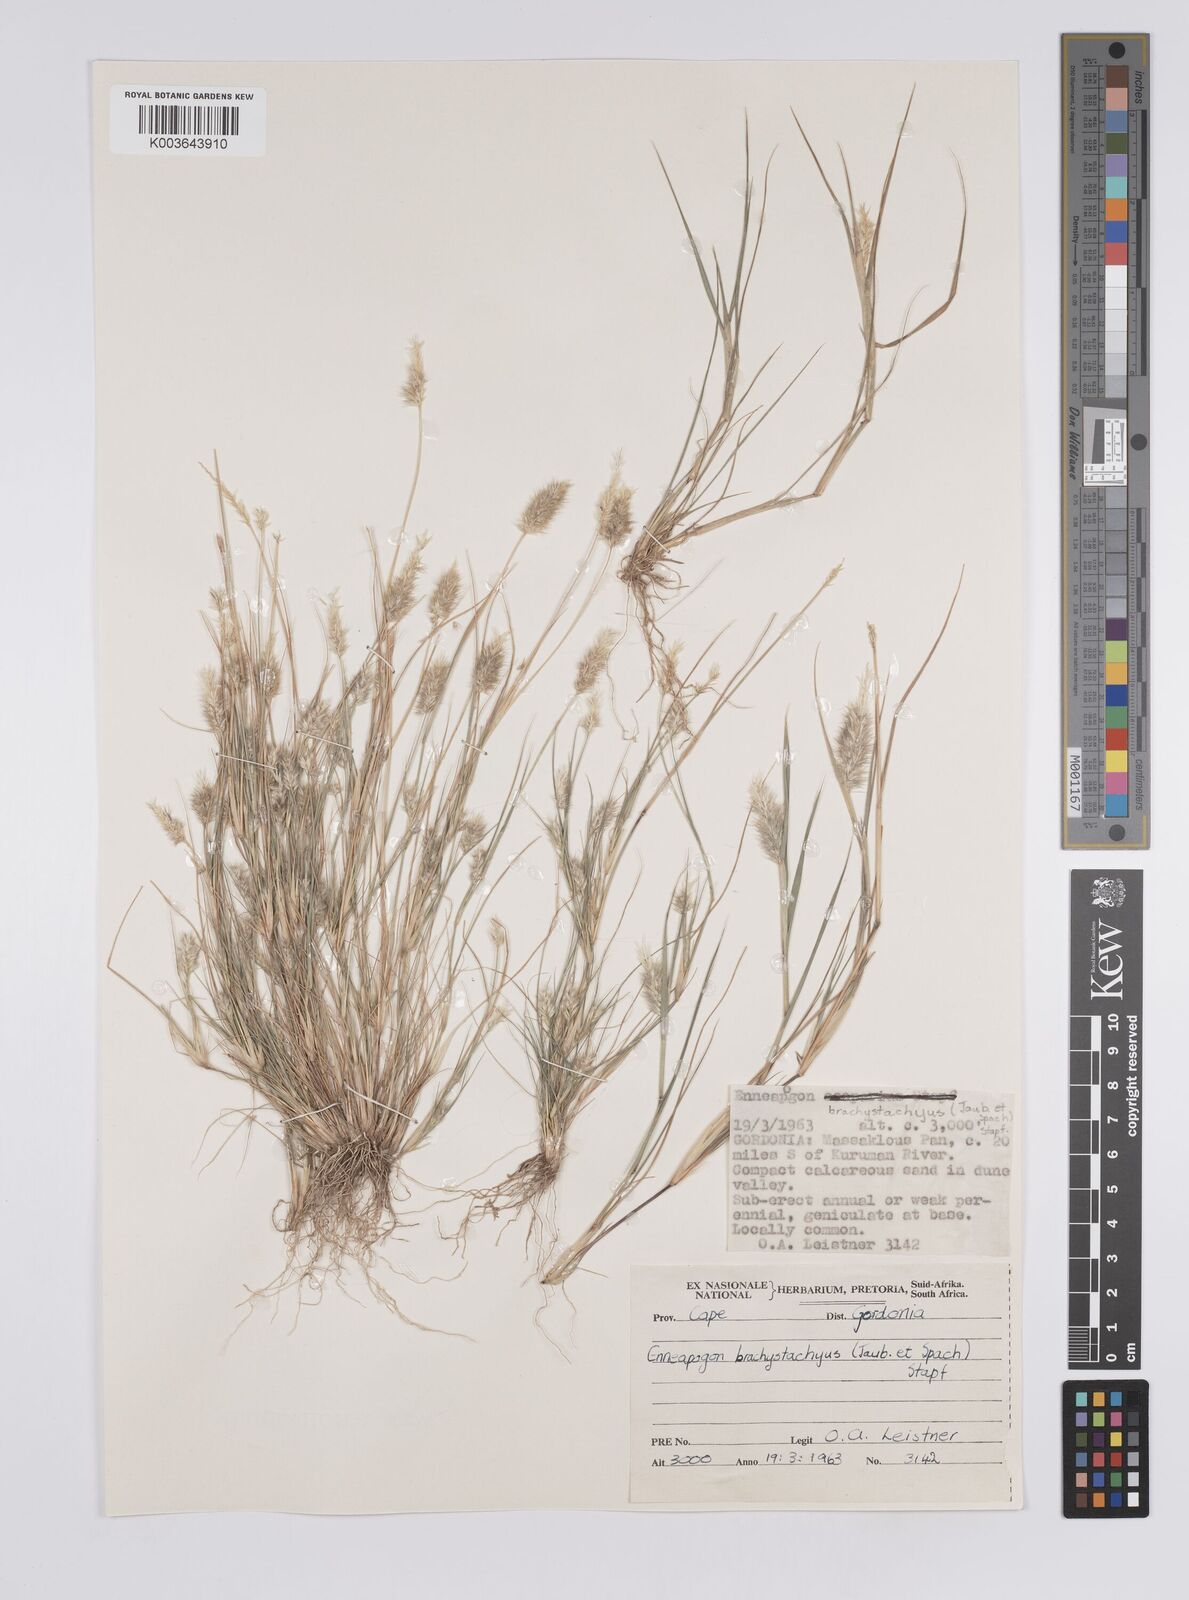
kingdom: Plantae
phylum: Tracheophyta
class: Liliopsida
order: Poales
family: Poaceae
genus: Enneapogon
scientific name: Enneapogon desvauxii
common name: Feather pappus grass
